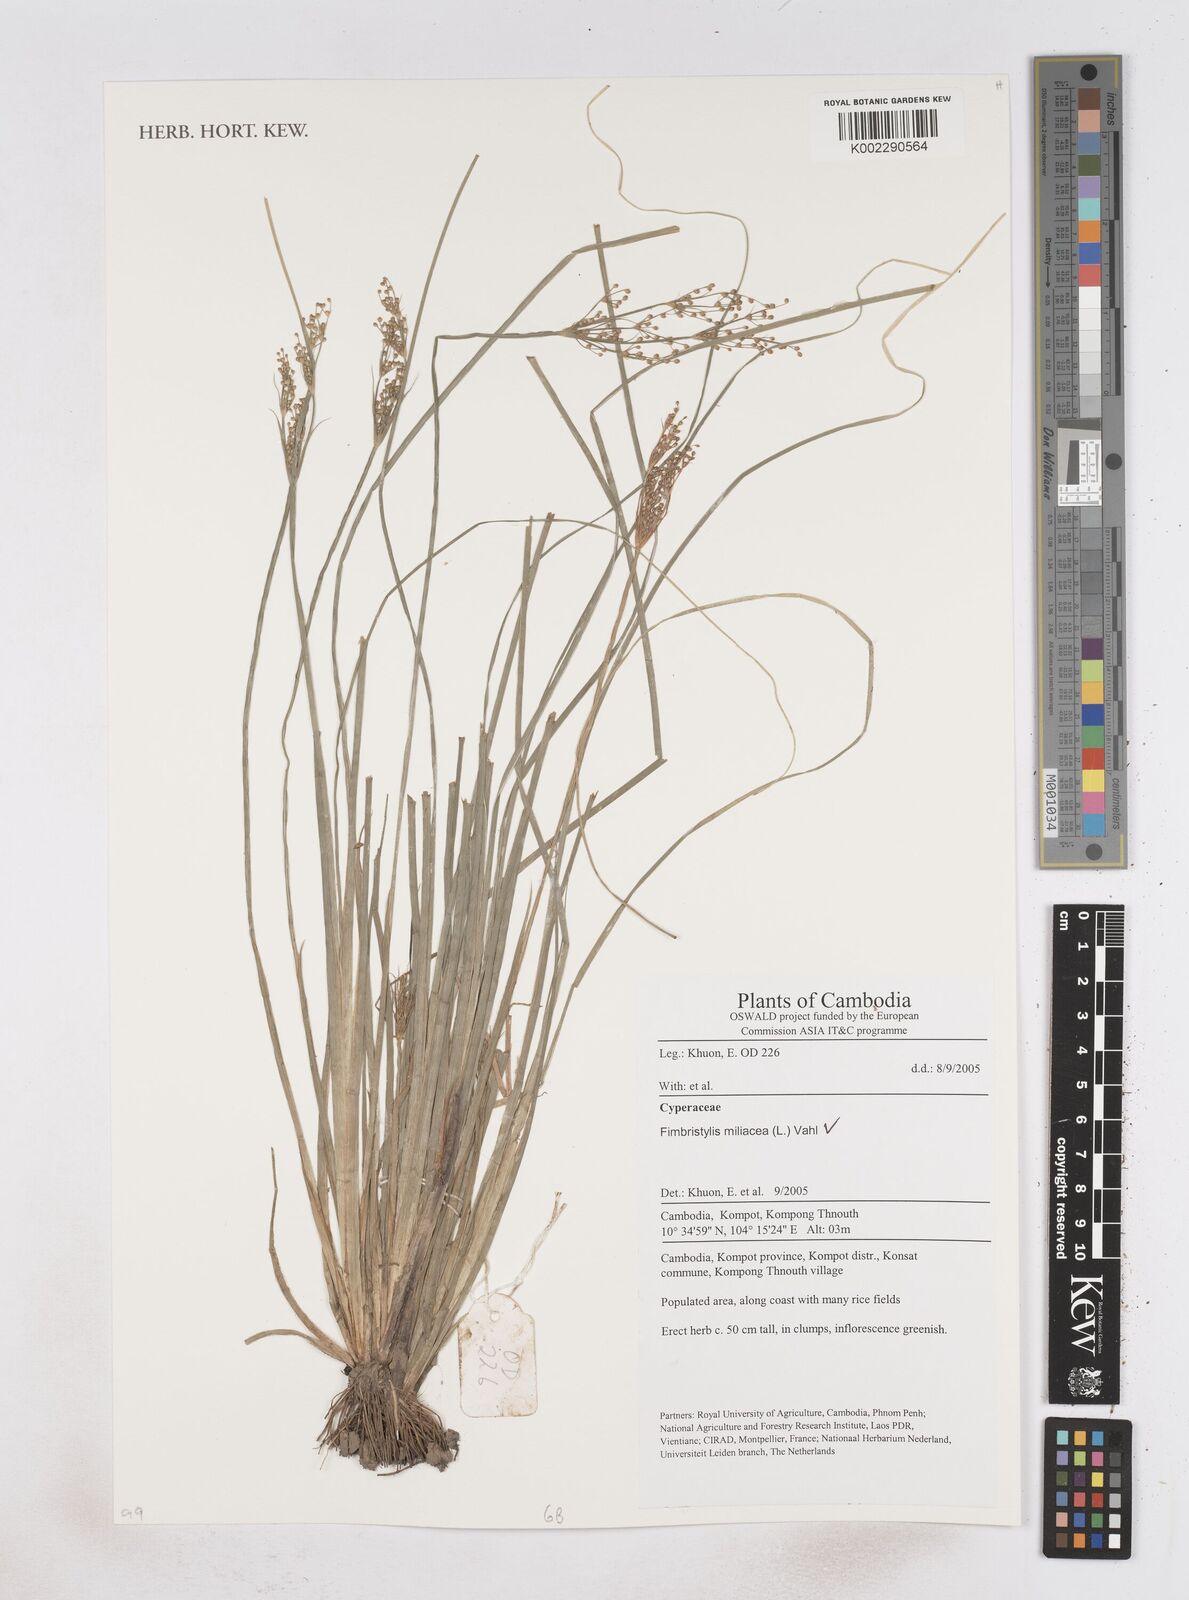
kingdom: Plantae
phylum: Tracheophyta
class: Liliopsida
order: Poales
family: Cyperaceae
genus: Fimbristylis
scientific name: Fimbristylis quinquangularis
